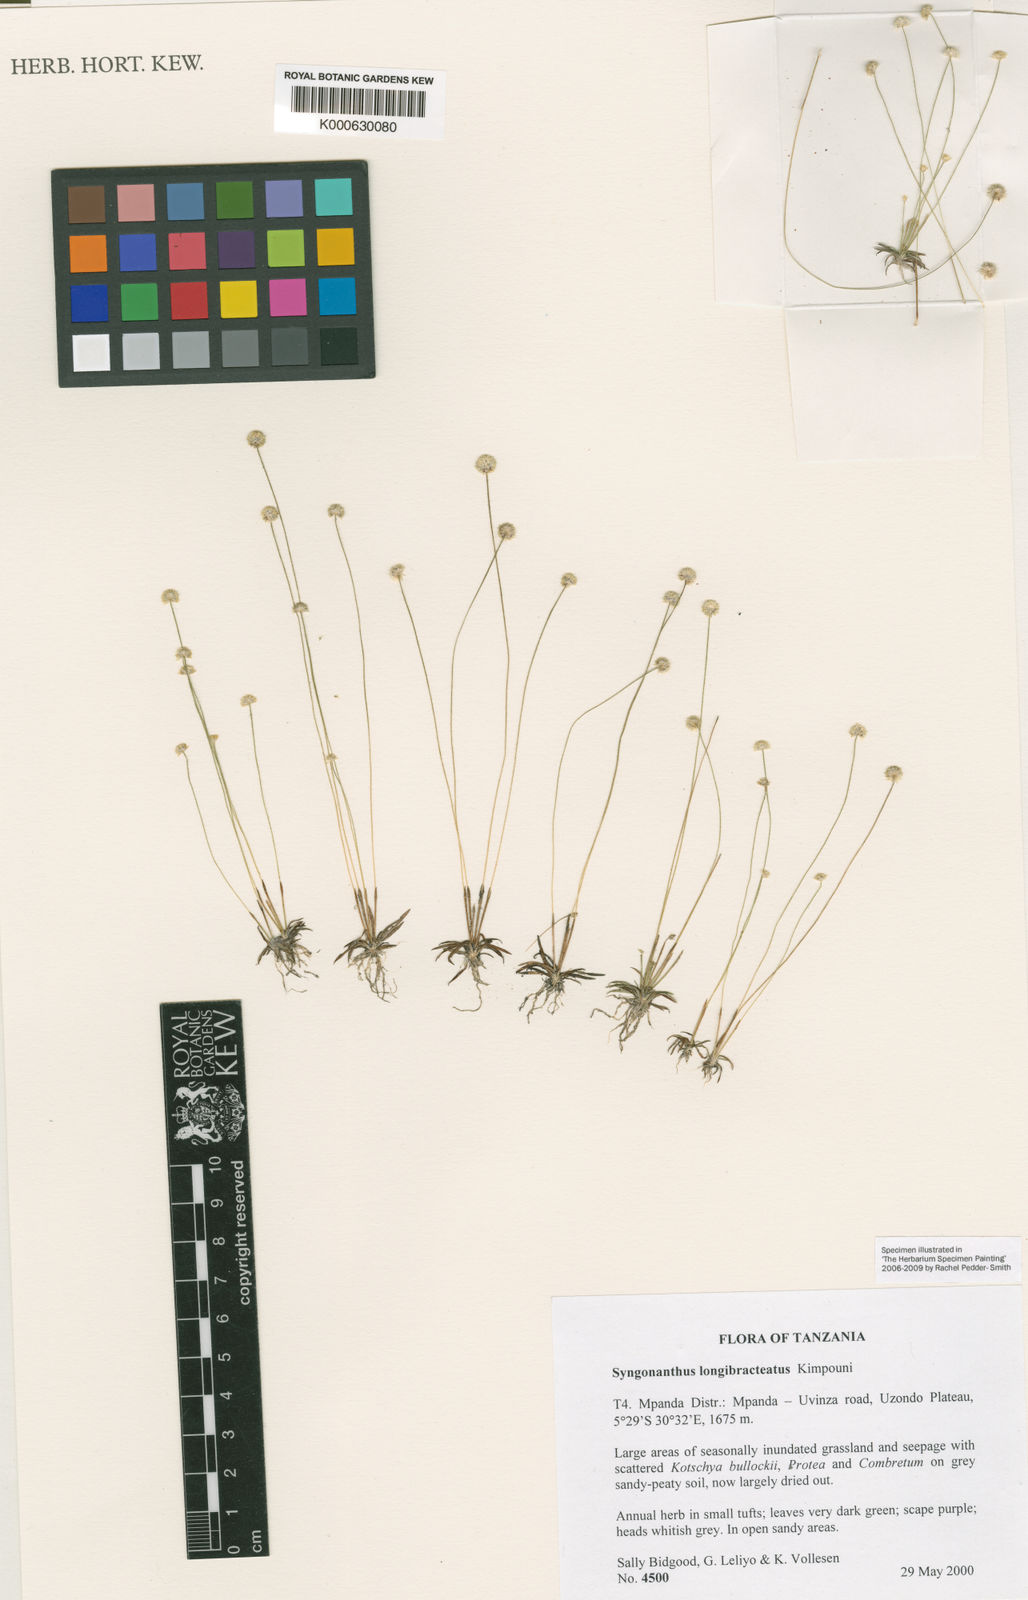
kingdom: Plantae
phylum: Tracheophyta
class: Liliopsida
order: Poales
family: Eriocaulaceae
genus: Syngonanthus
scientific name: Syngonanthus longibracteatus
